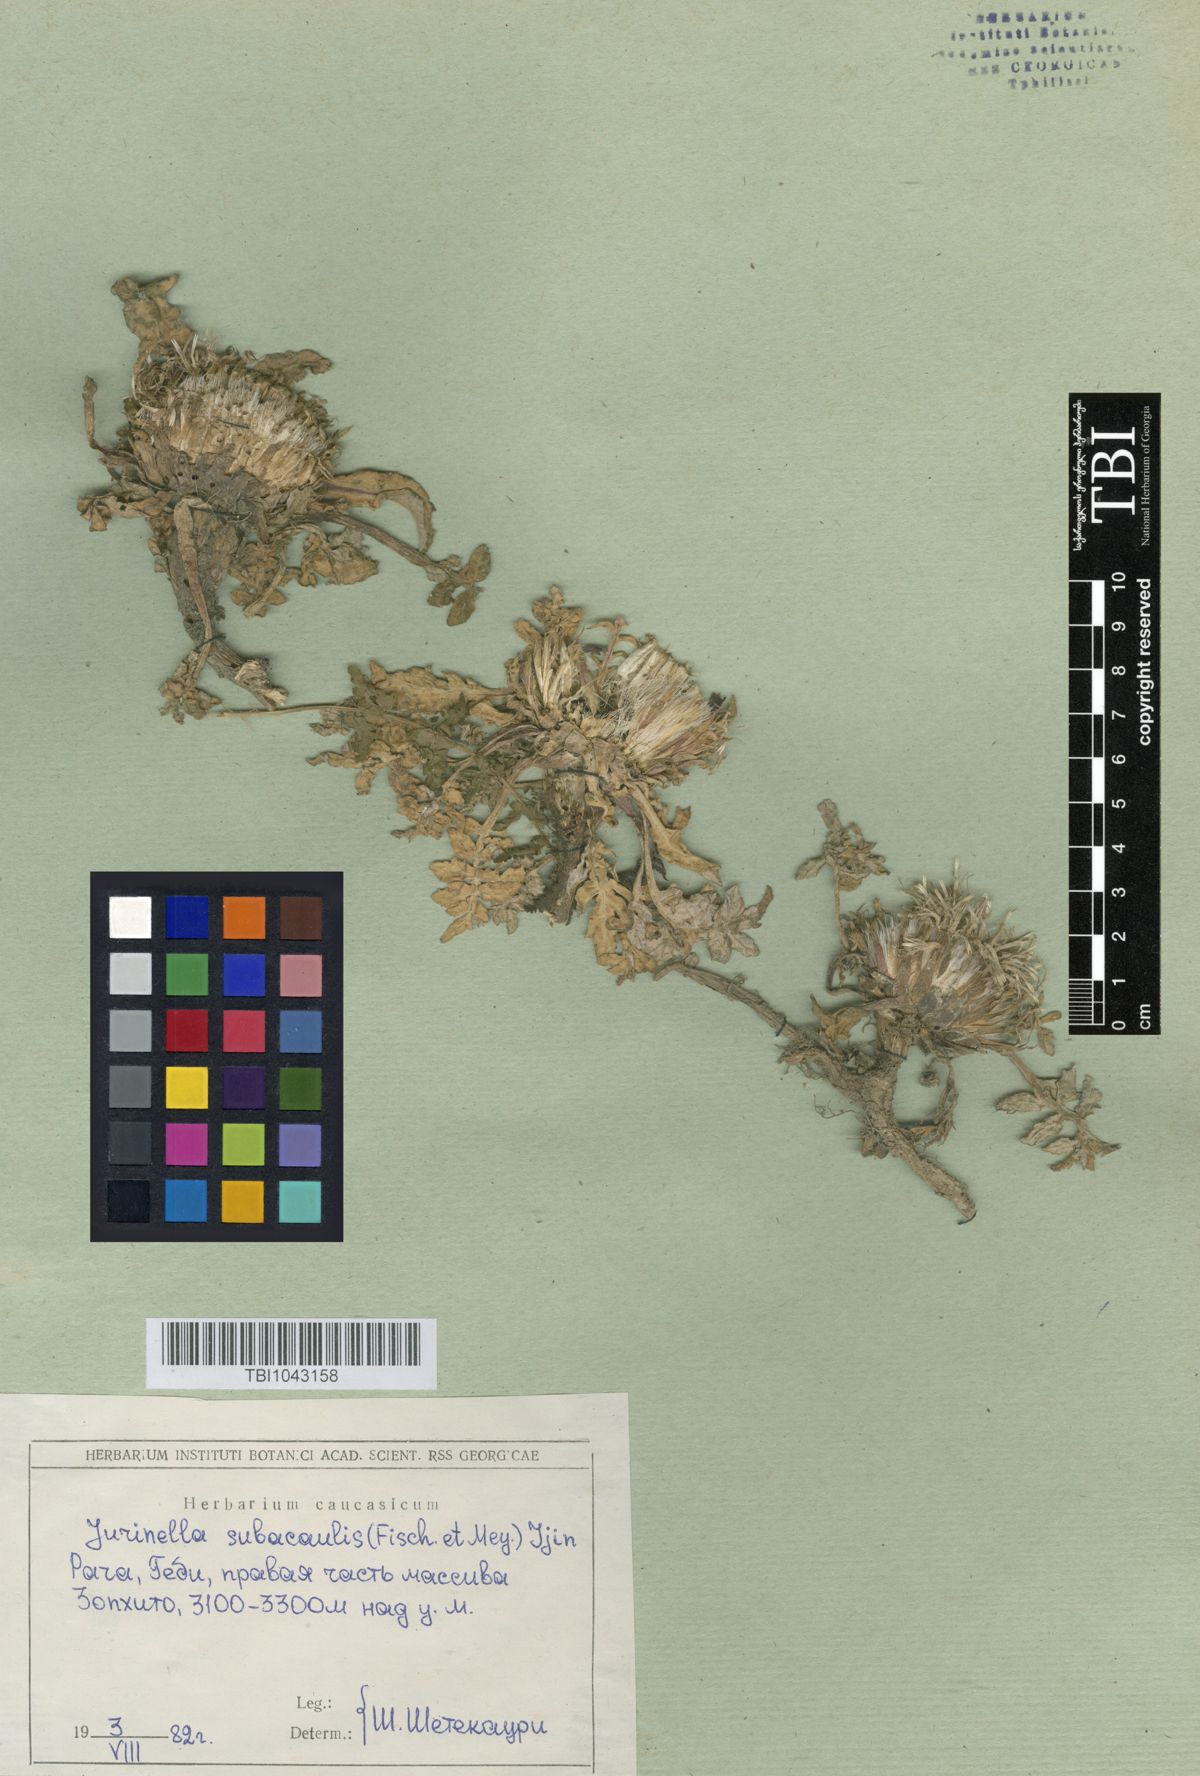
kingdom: Plantae
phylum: Tracheophyta
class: Magnoliopsida
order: Asterales
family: Asteraceae
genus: Jurinea
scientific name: Jurinea moschus
